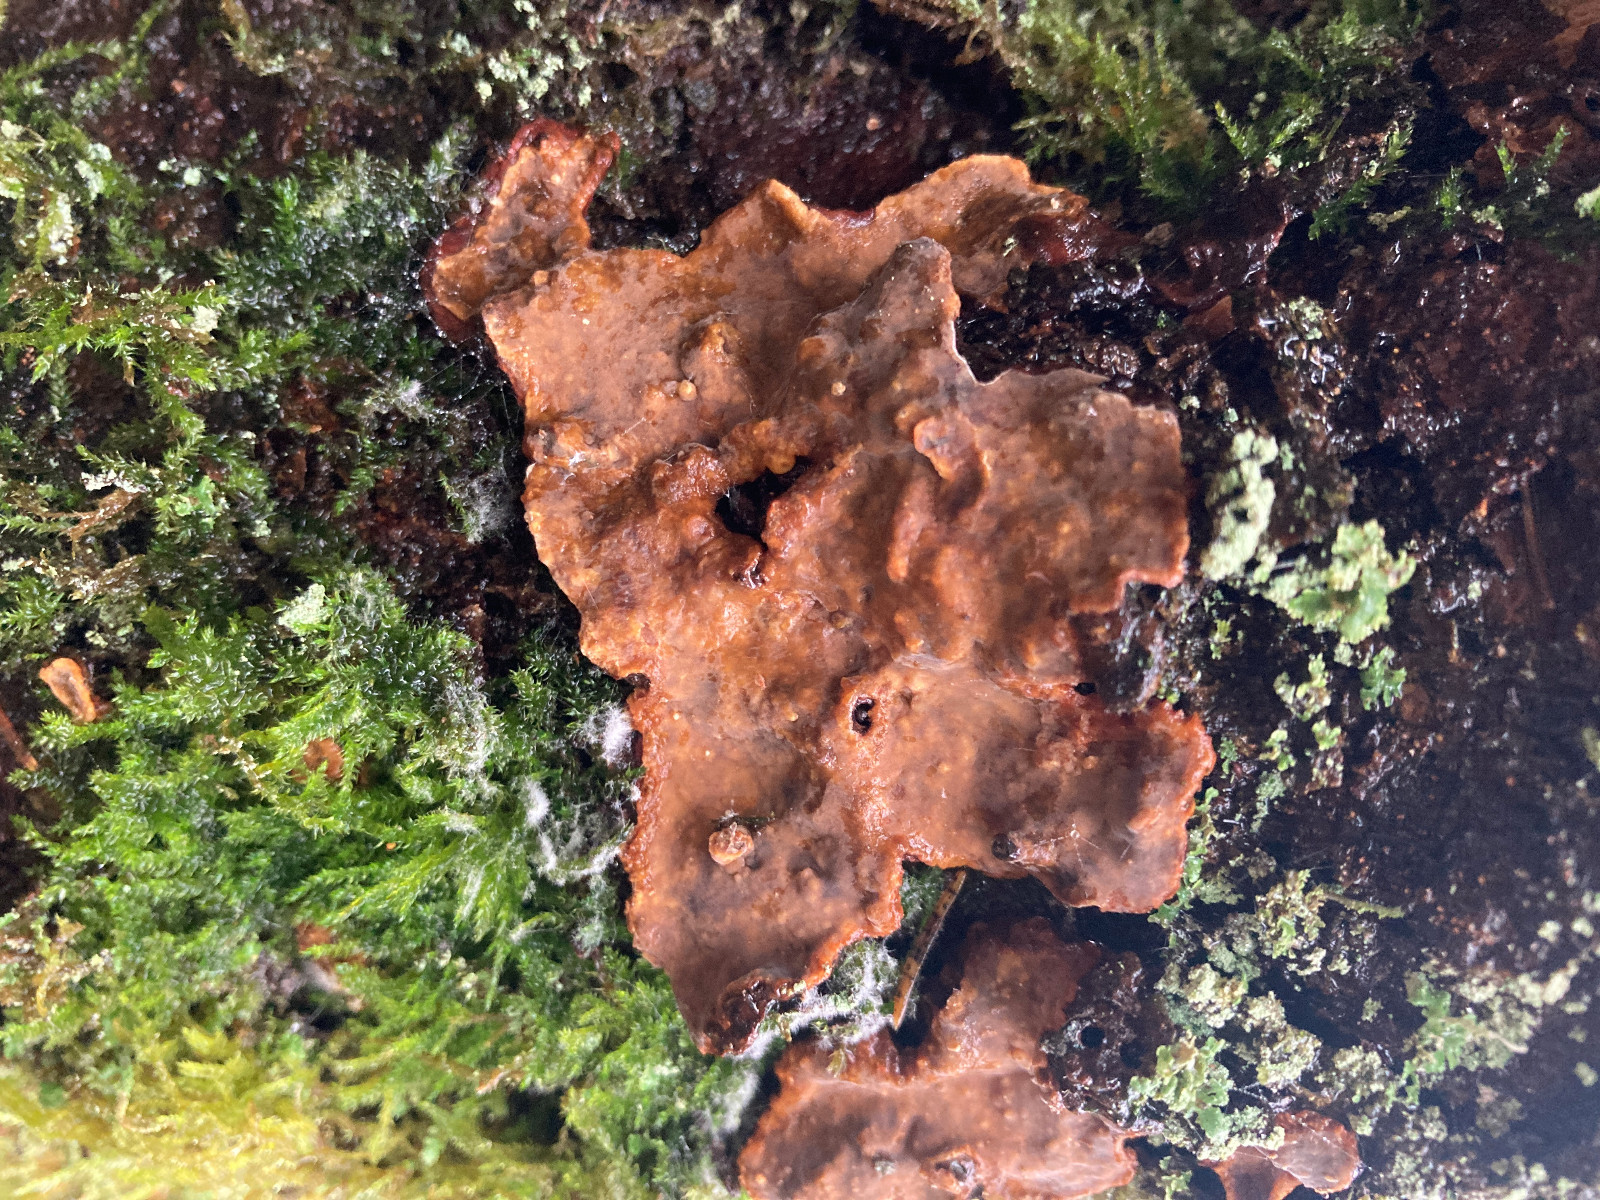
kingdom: Fungi
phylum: Basidiomycota
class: Agaricomycetes
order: Russulales
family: Stereaceae
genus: Stereum
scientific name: Stereum
